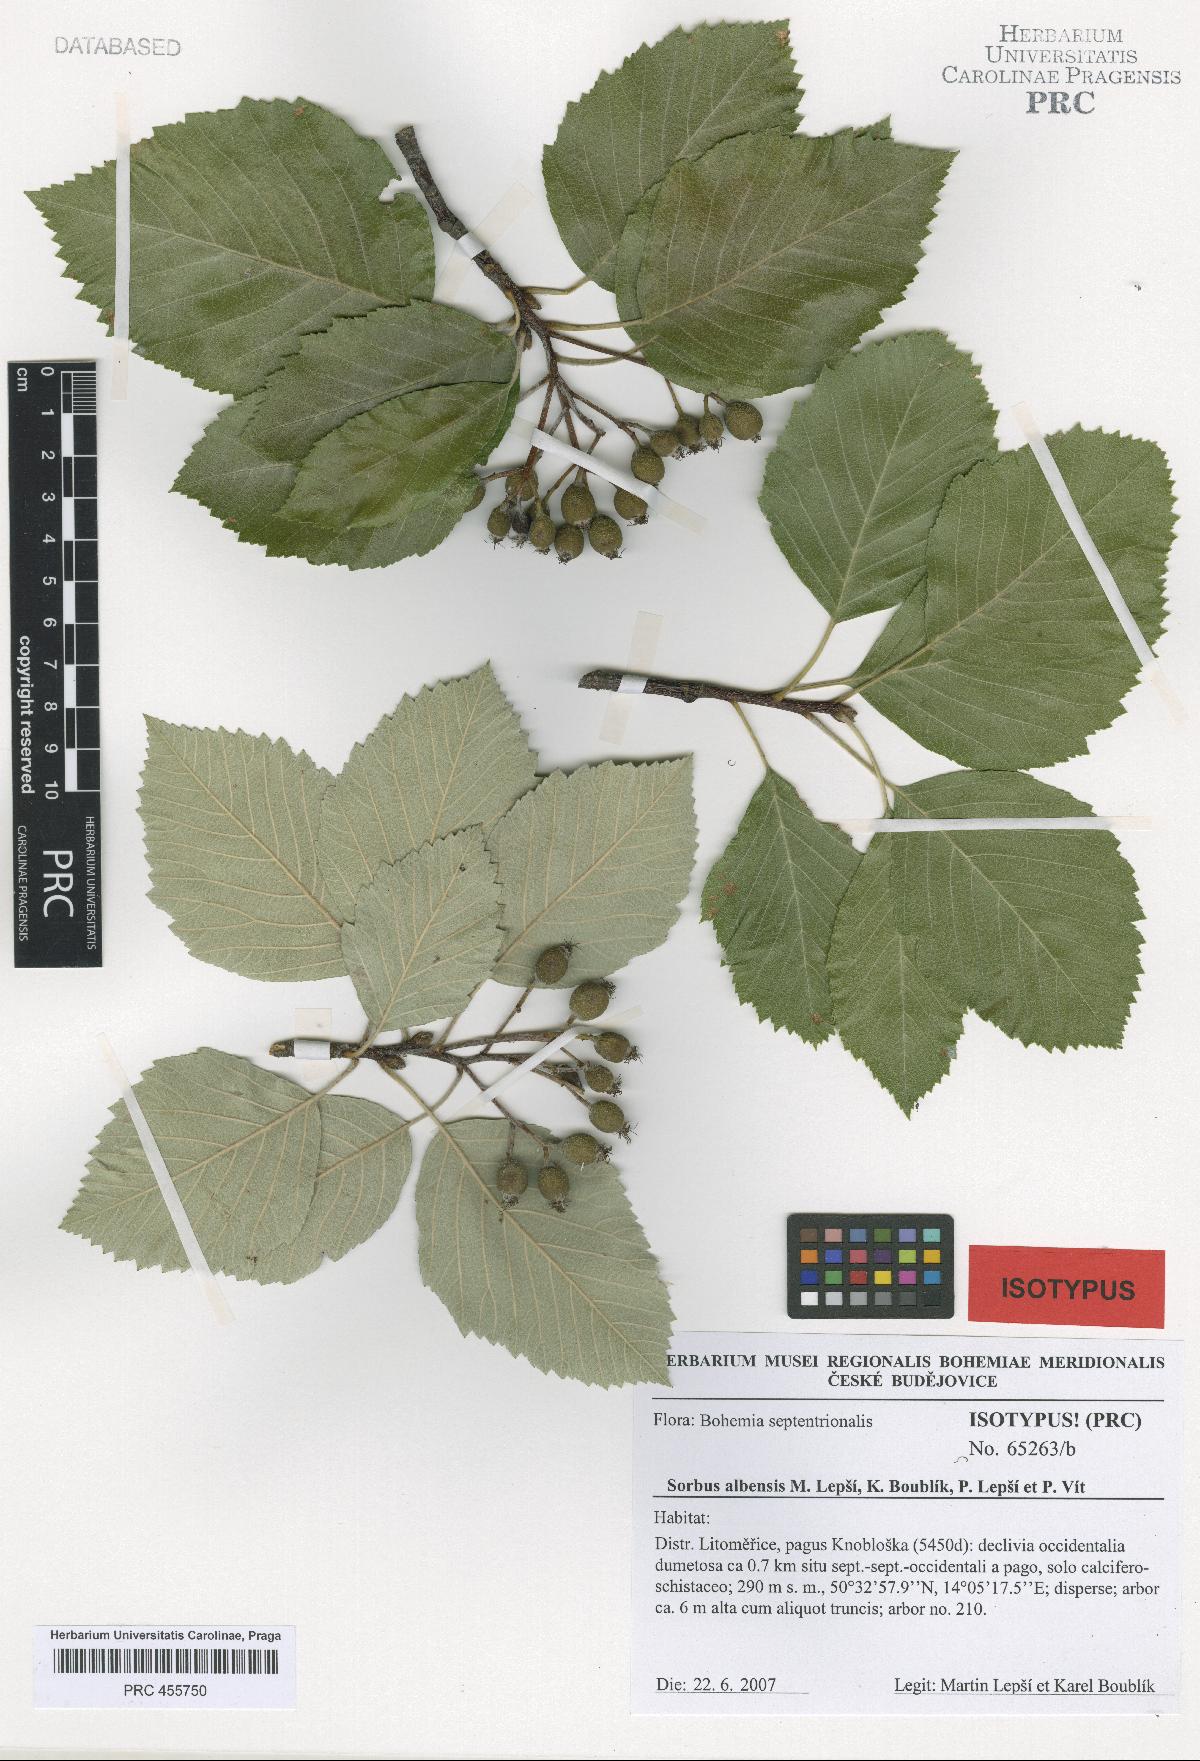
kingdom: Plantae
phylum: Tracheophyta
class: Magnoliopsida
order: Rosales
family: Rosaceae
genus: Karpatiosorbus
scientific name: Karpatiosorbus albensis
